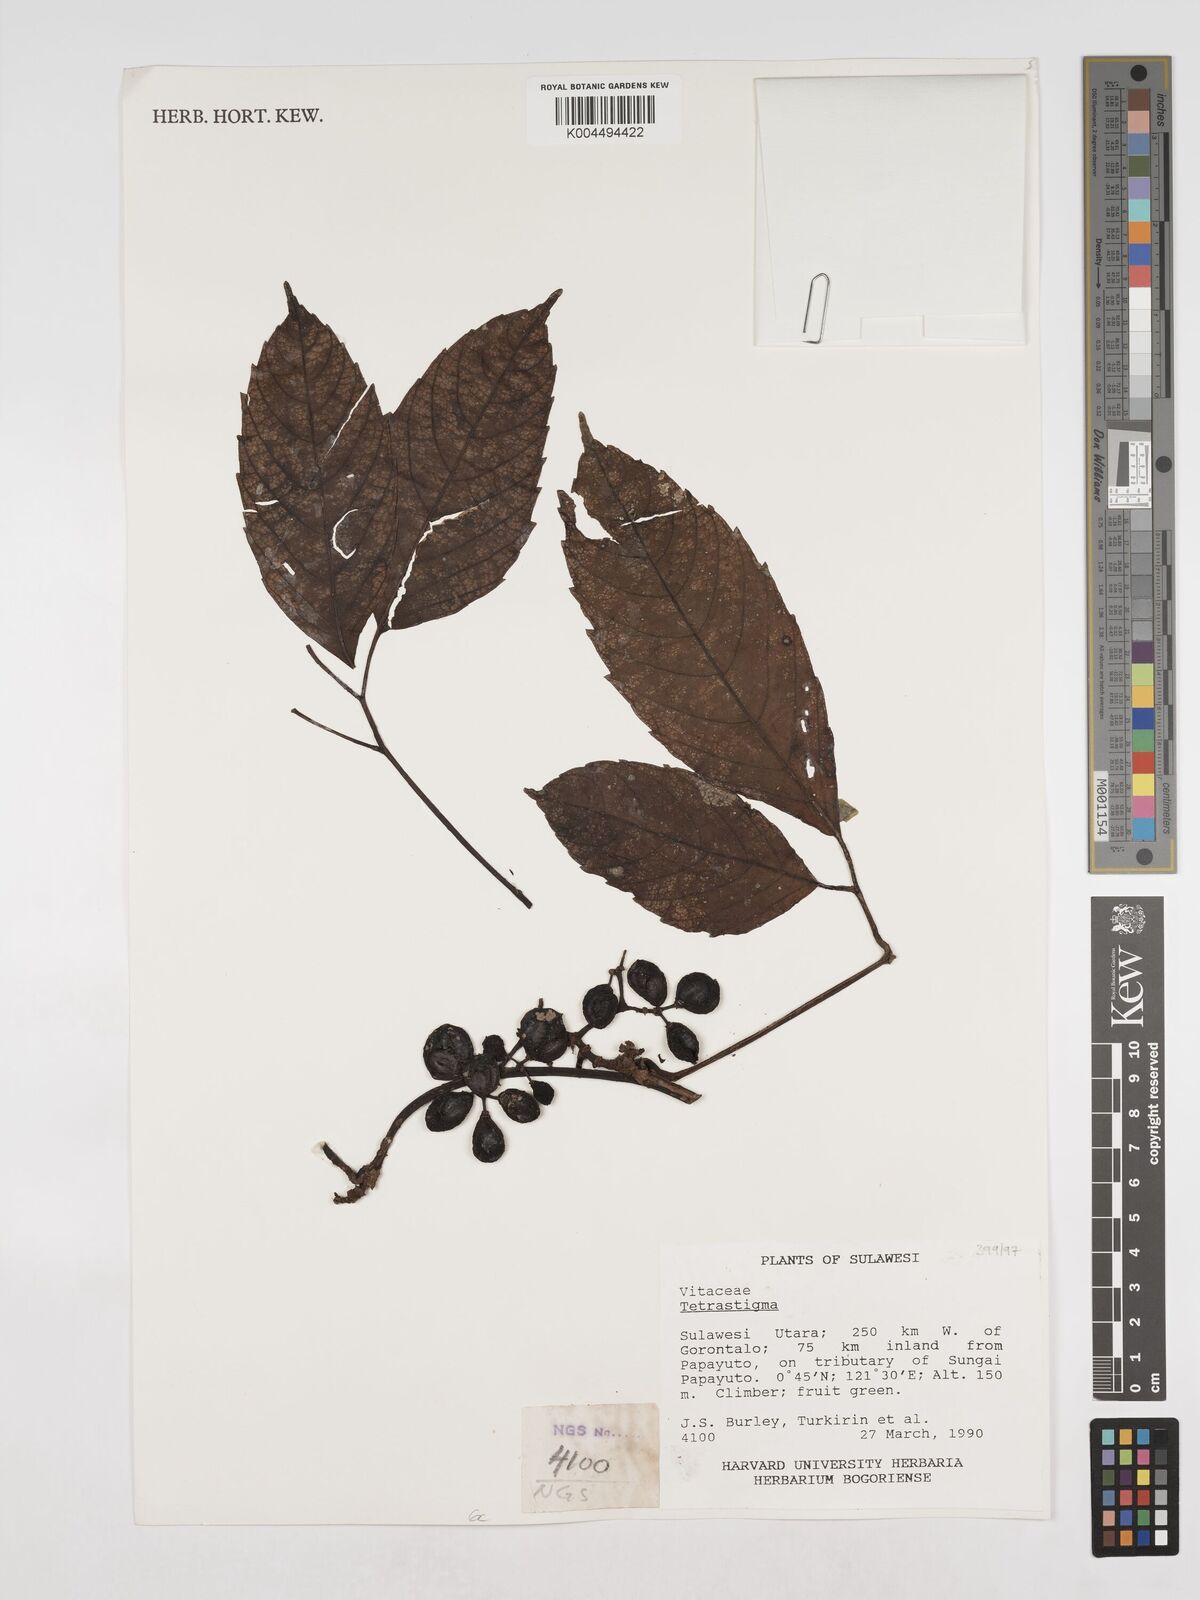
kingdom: Plantae
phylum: Tracheophyta
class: Magnoliopsida
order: Vitales
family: Vitaceae
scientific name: Vitaceae
